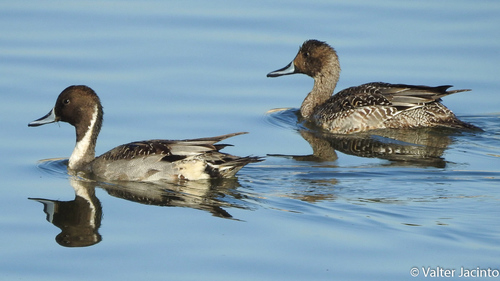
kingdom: Animalia
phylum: Chordata
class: Aves
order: Anseriformes
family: Anatidae
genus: Anas
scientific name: Anas acuta
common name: Northern pintail
